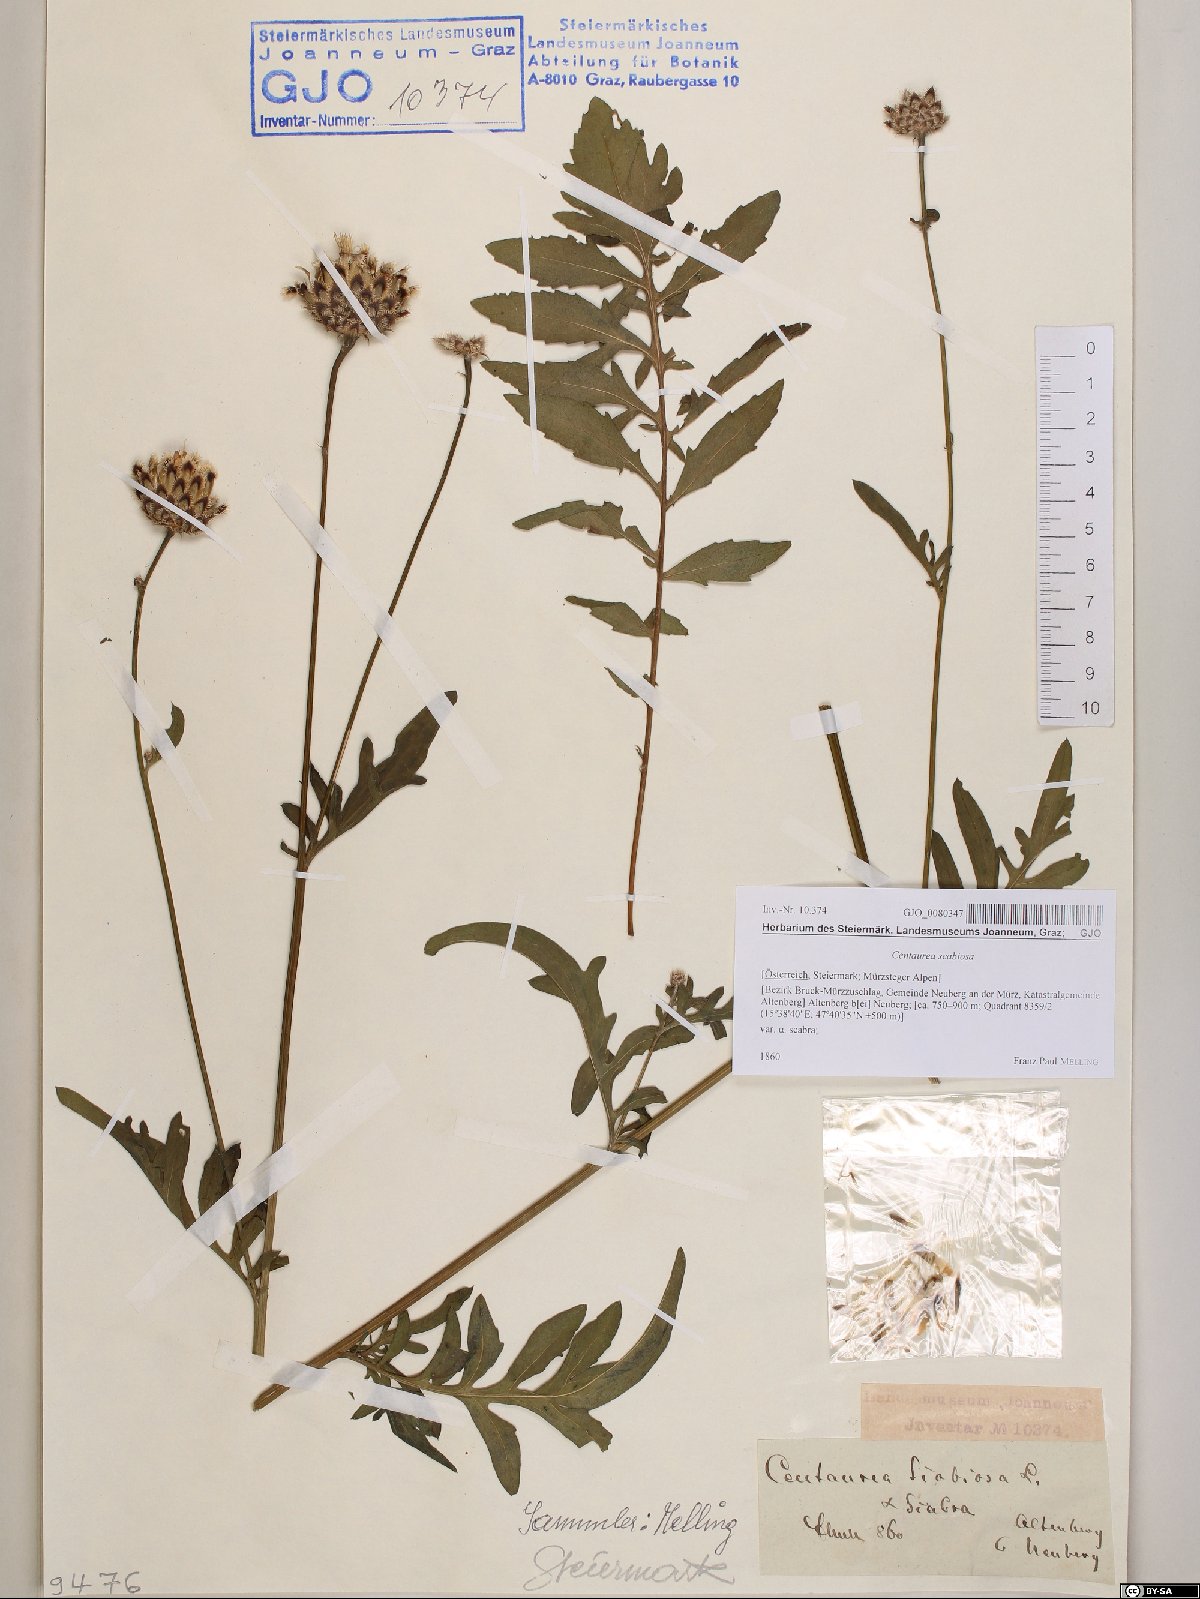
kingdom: Plantae
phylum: Tracheophyta
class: Magnoliopsida
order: Asterales
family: Asteraceae
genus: Centaurea
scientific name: Centaurea scabiosa
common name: Greater knapweed
